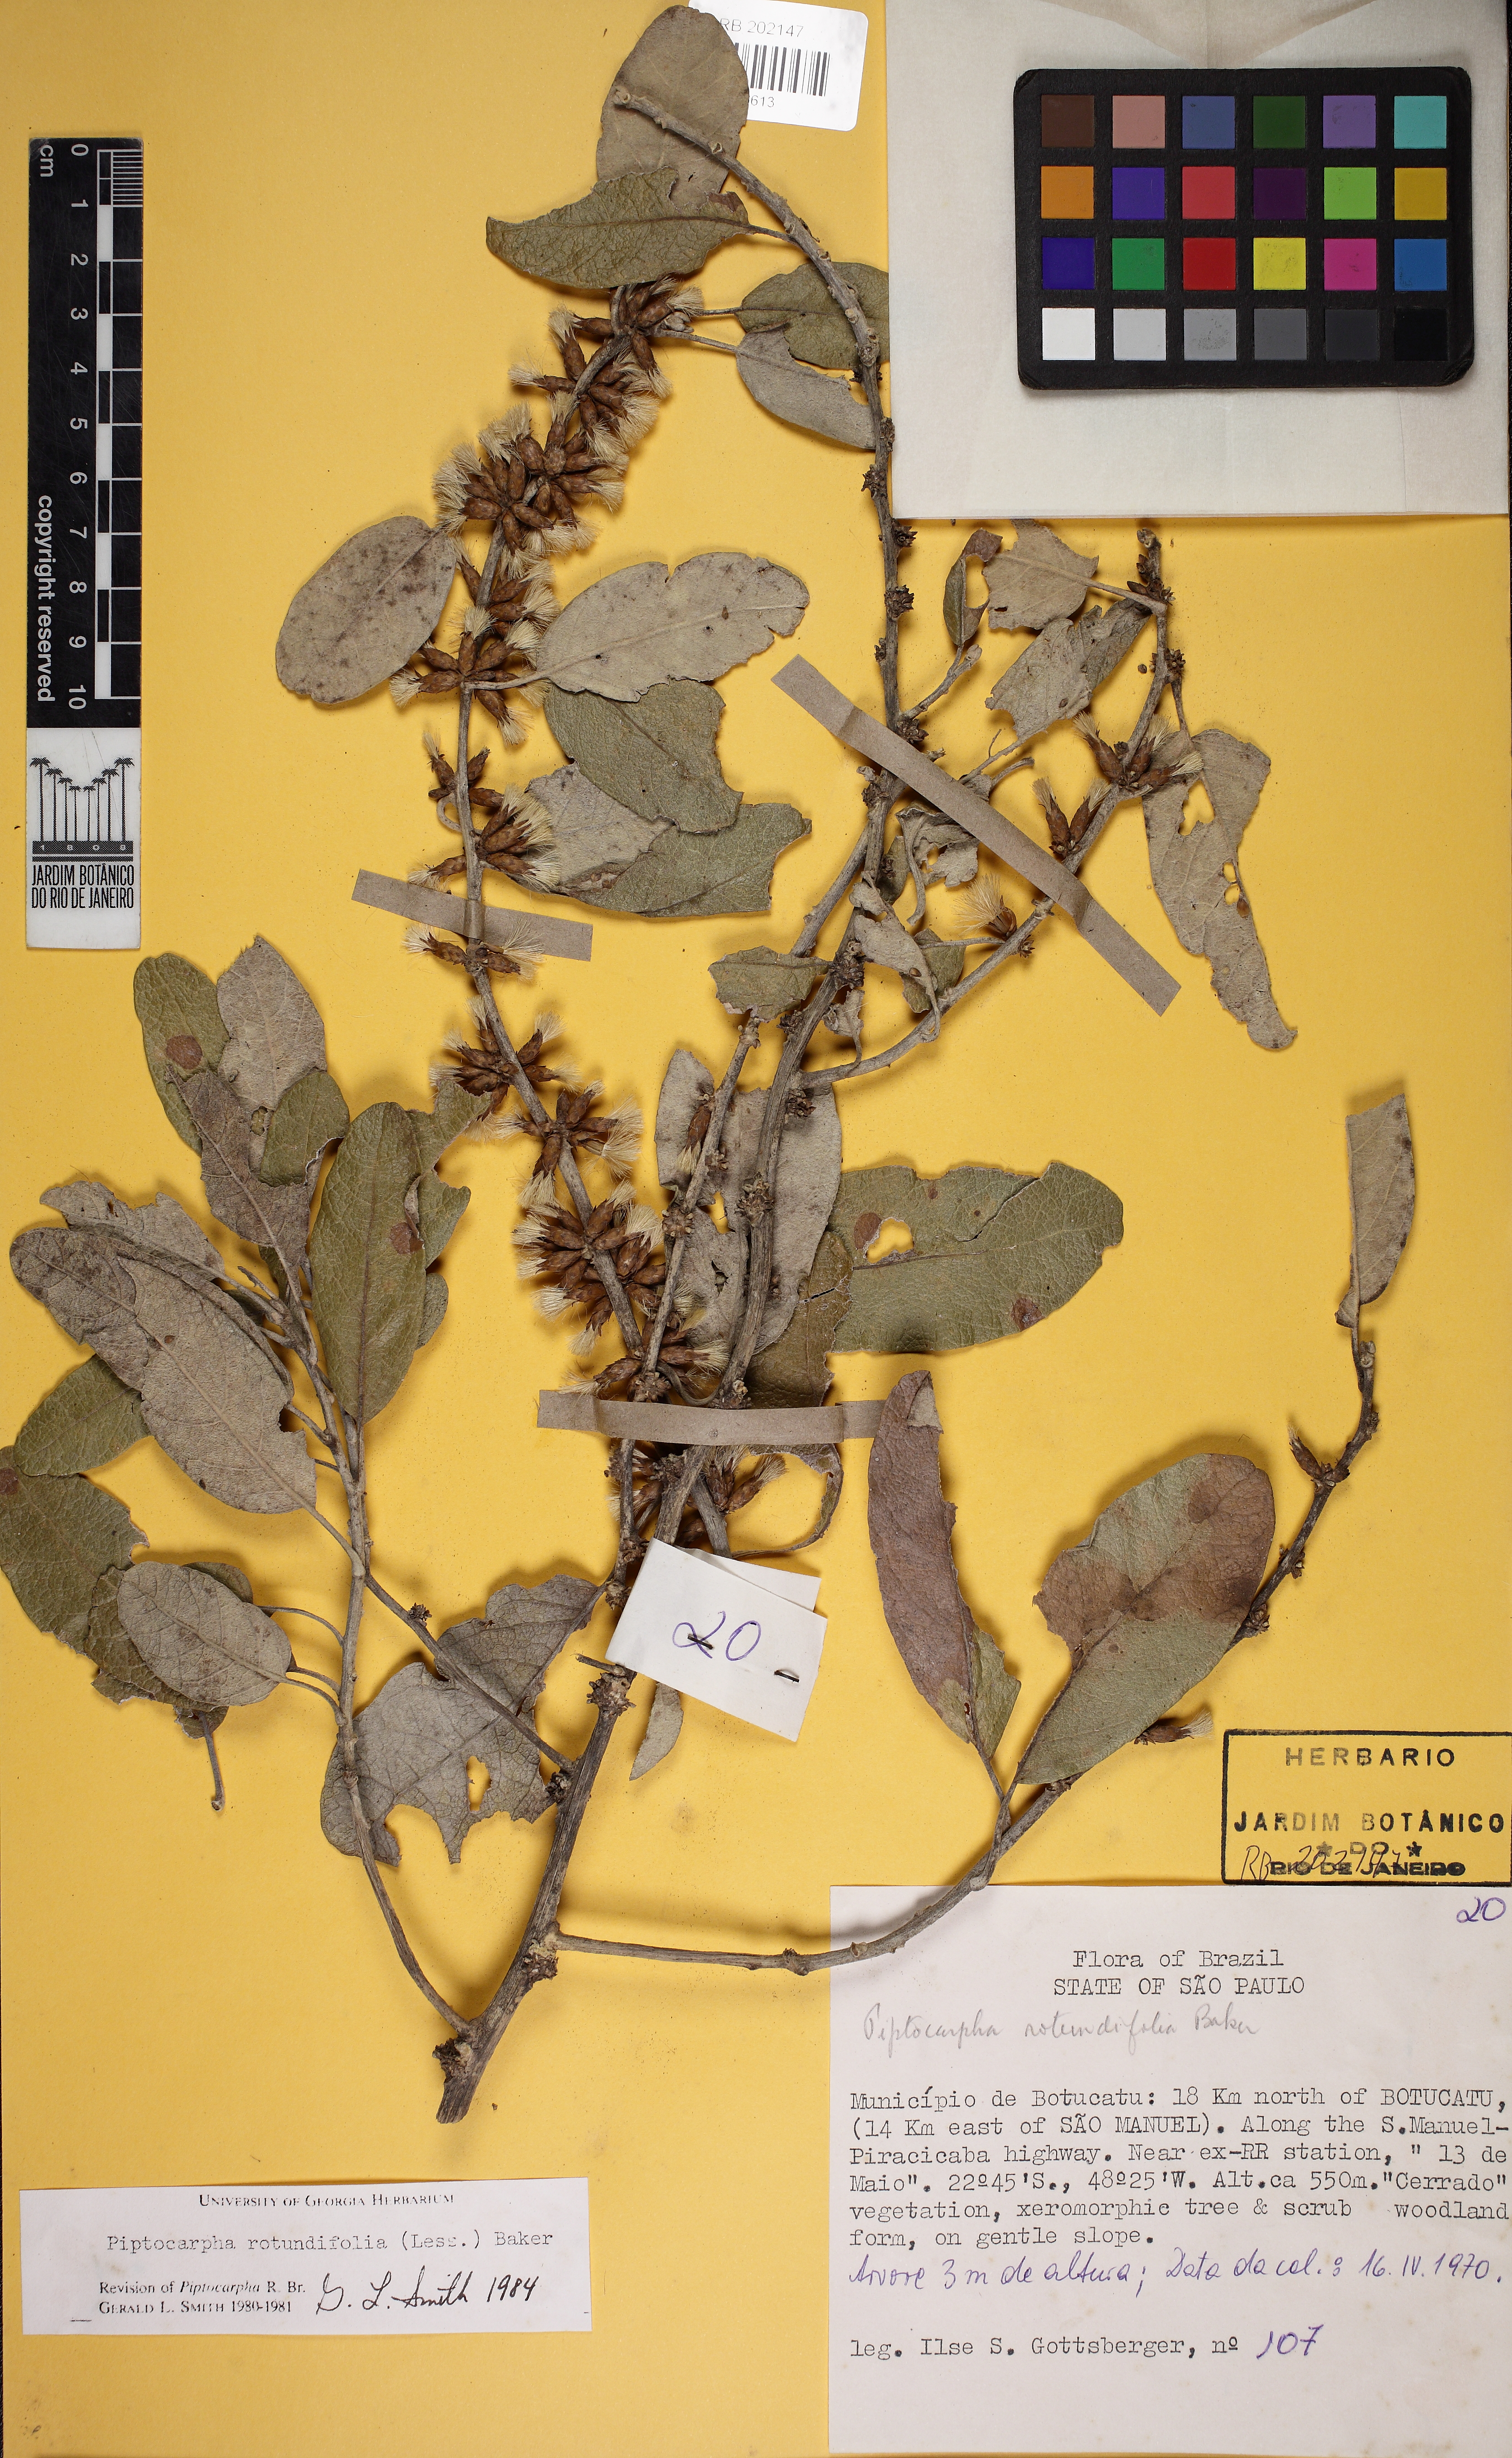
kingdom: Plantae
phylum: Tracheophyta
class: Magnoliopsida
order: Asterales
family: Asteraceae
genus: Piptocarpha
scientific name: Piptocarpha rotundifolia
